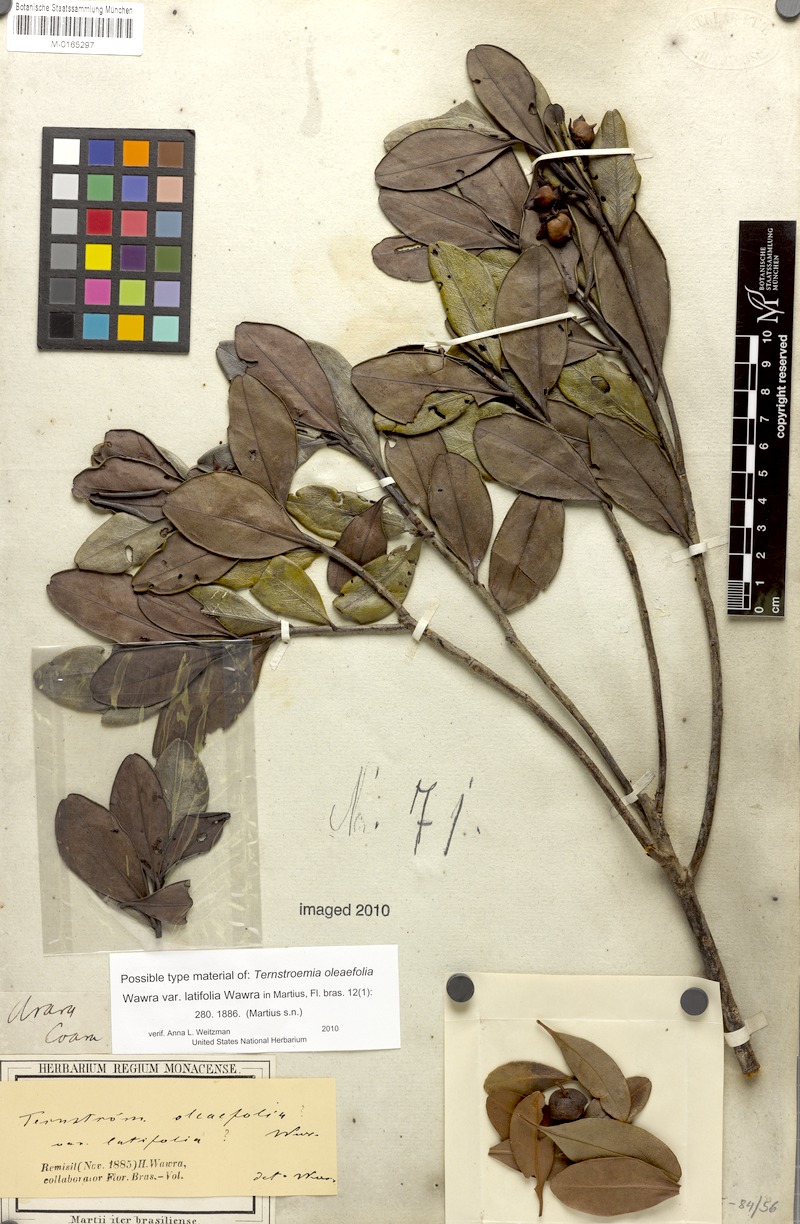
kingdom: Plantae
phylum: Tracheophyta
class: Magnoliopsida
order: Ericales
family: Pentaphylacaceae
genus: Ternstroemia
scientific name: Ternstroemia oleifolia
